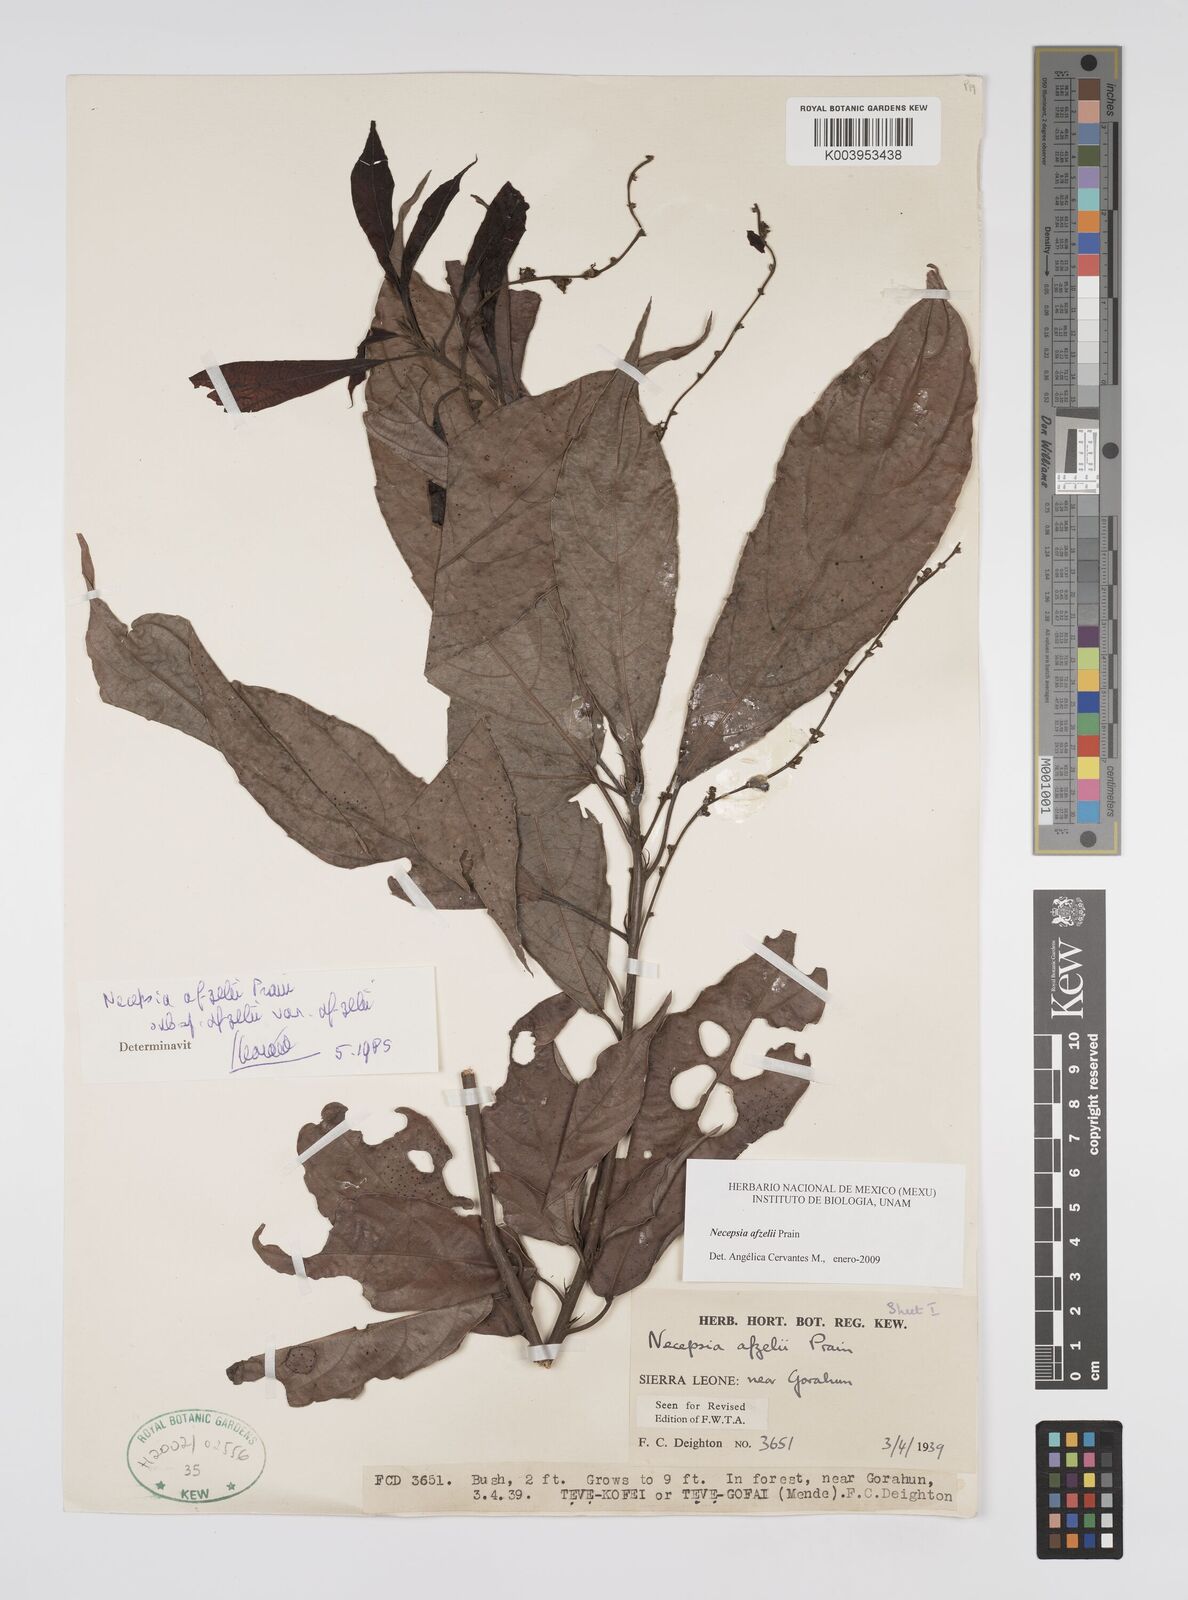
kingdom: Plantae
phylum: Tracheophyta
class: Magnoliopsida
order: Malpighiales
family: Euphorbiaceae
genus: Necepsia
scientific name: Necepsia afzelii
